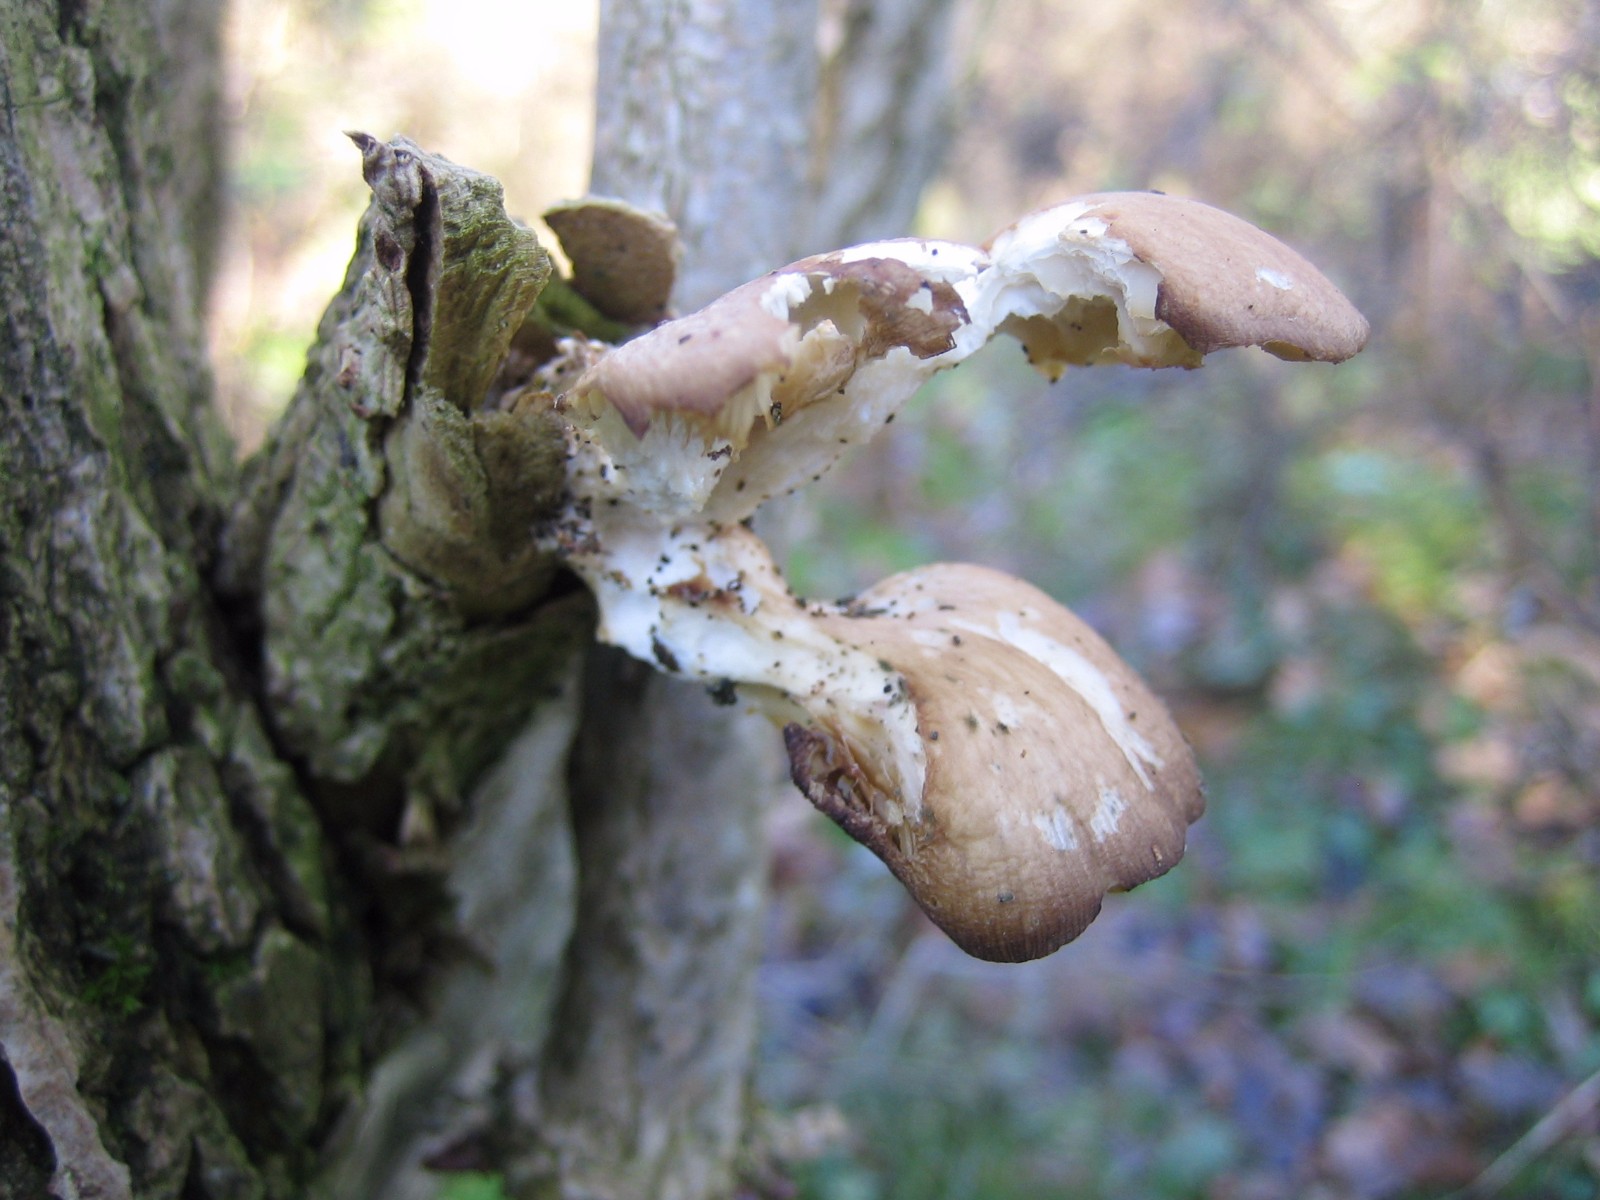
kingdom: Fungi
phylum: Basidiomycota
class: Agaricomycetes
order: Agaricales
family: Pleurotaceae
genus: Pleurotus
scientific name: Pleurotus
